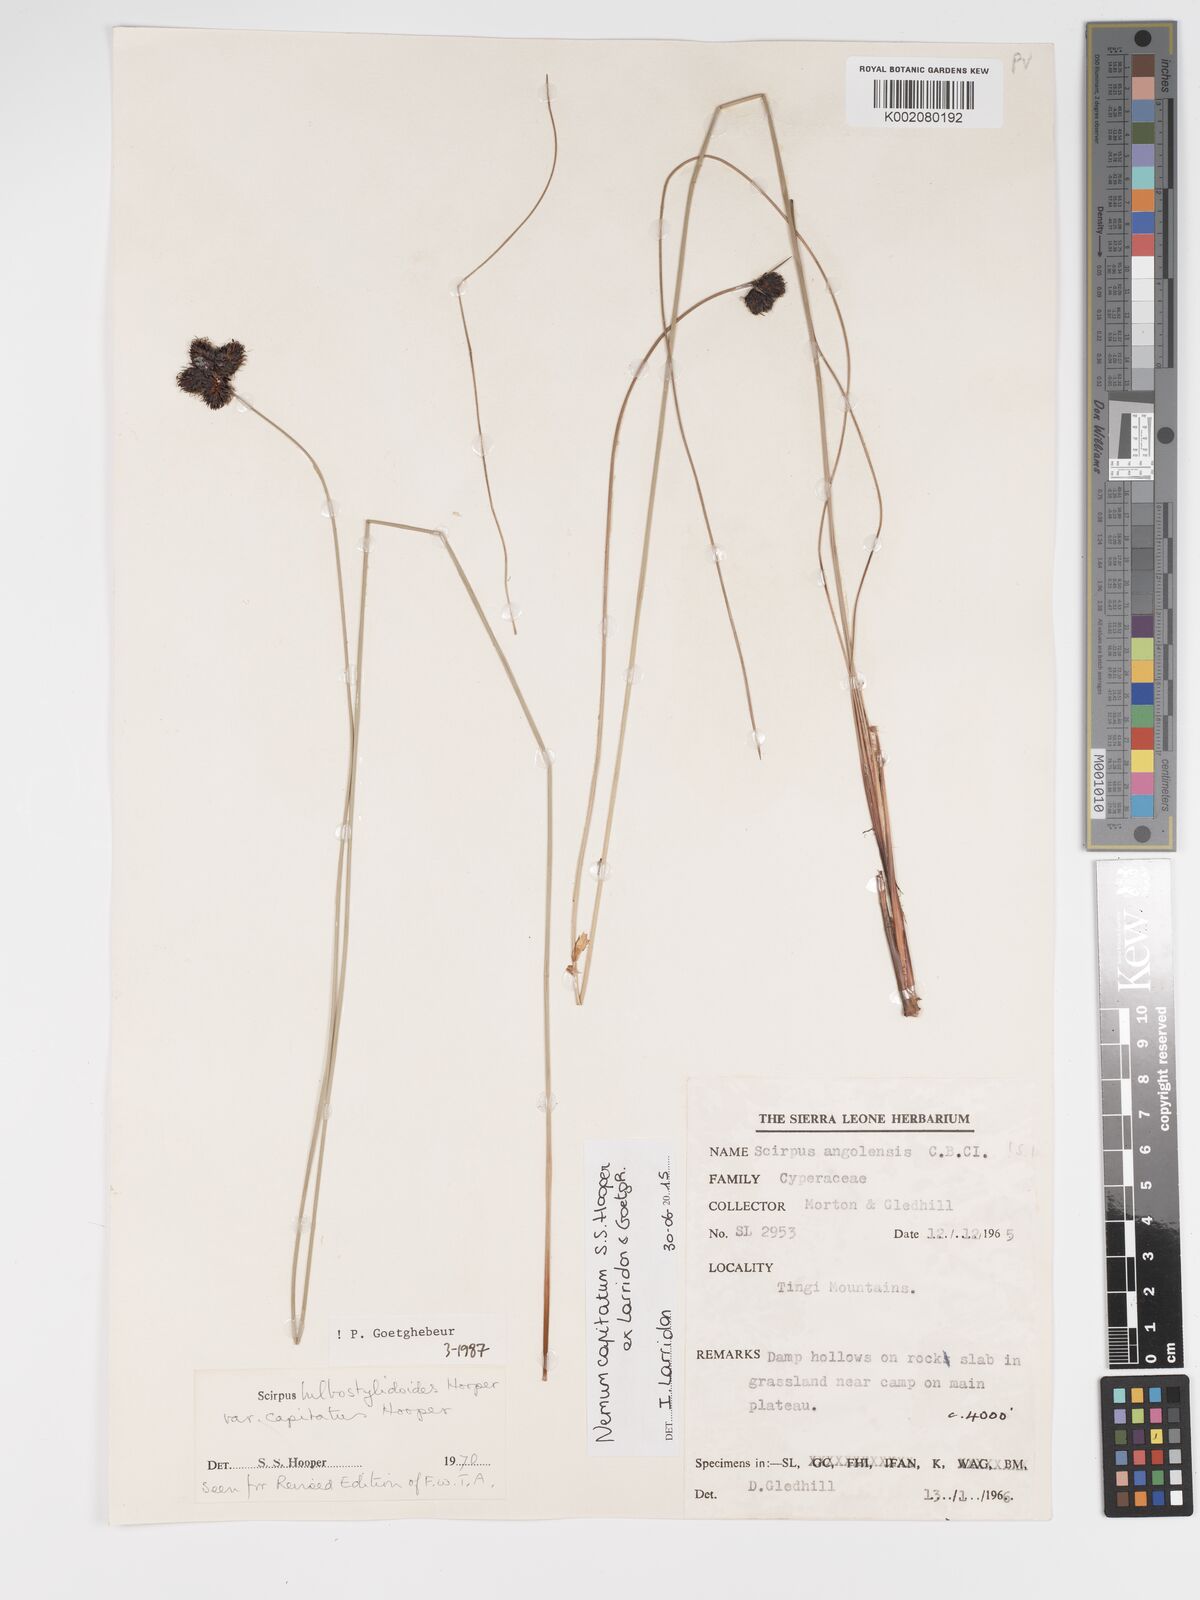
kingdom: Plantae
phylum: Tracheophyta
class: Liliopsida
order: Poales
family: Cyperaceae
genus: Bulbostylis
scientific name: Bulbostylis neocapitata
